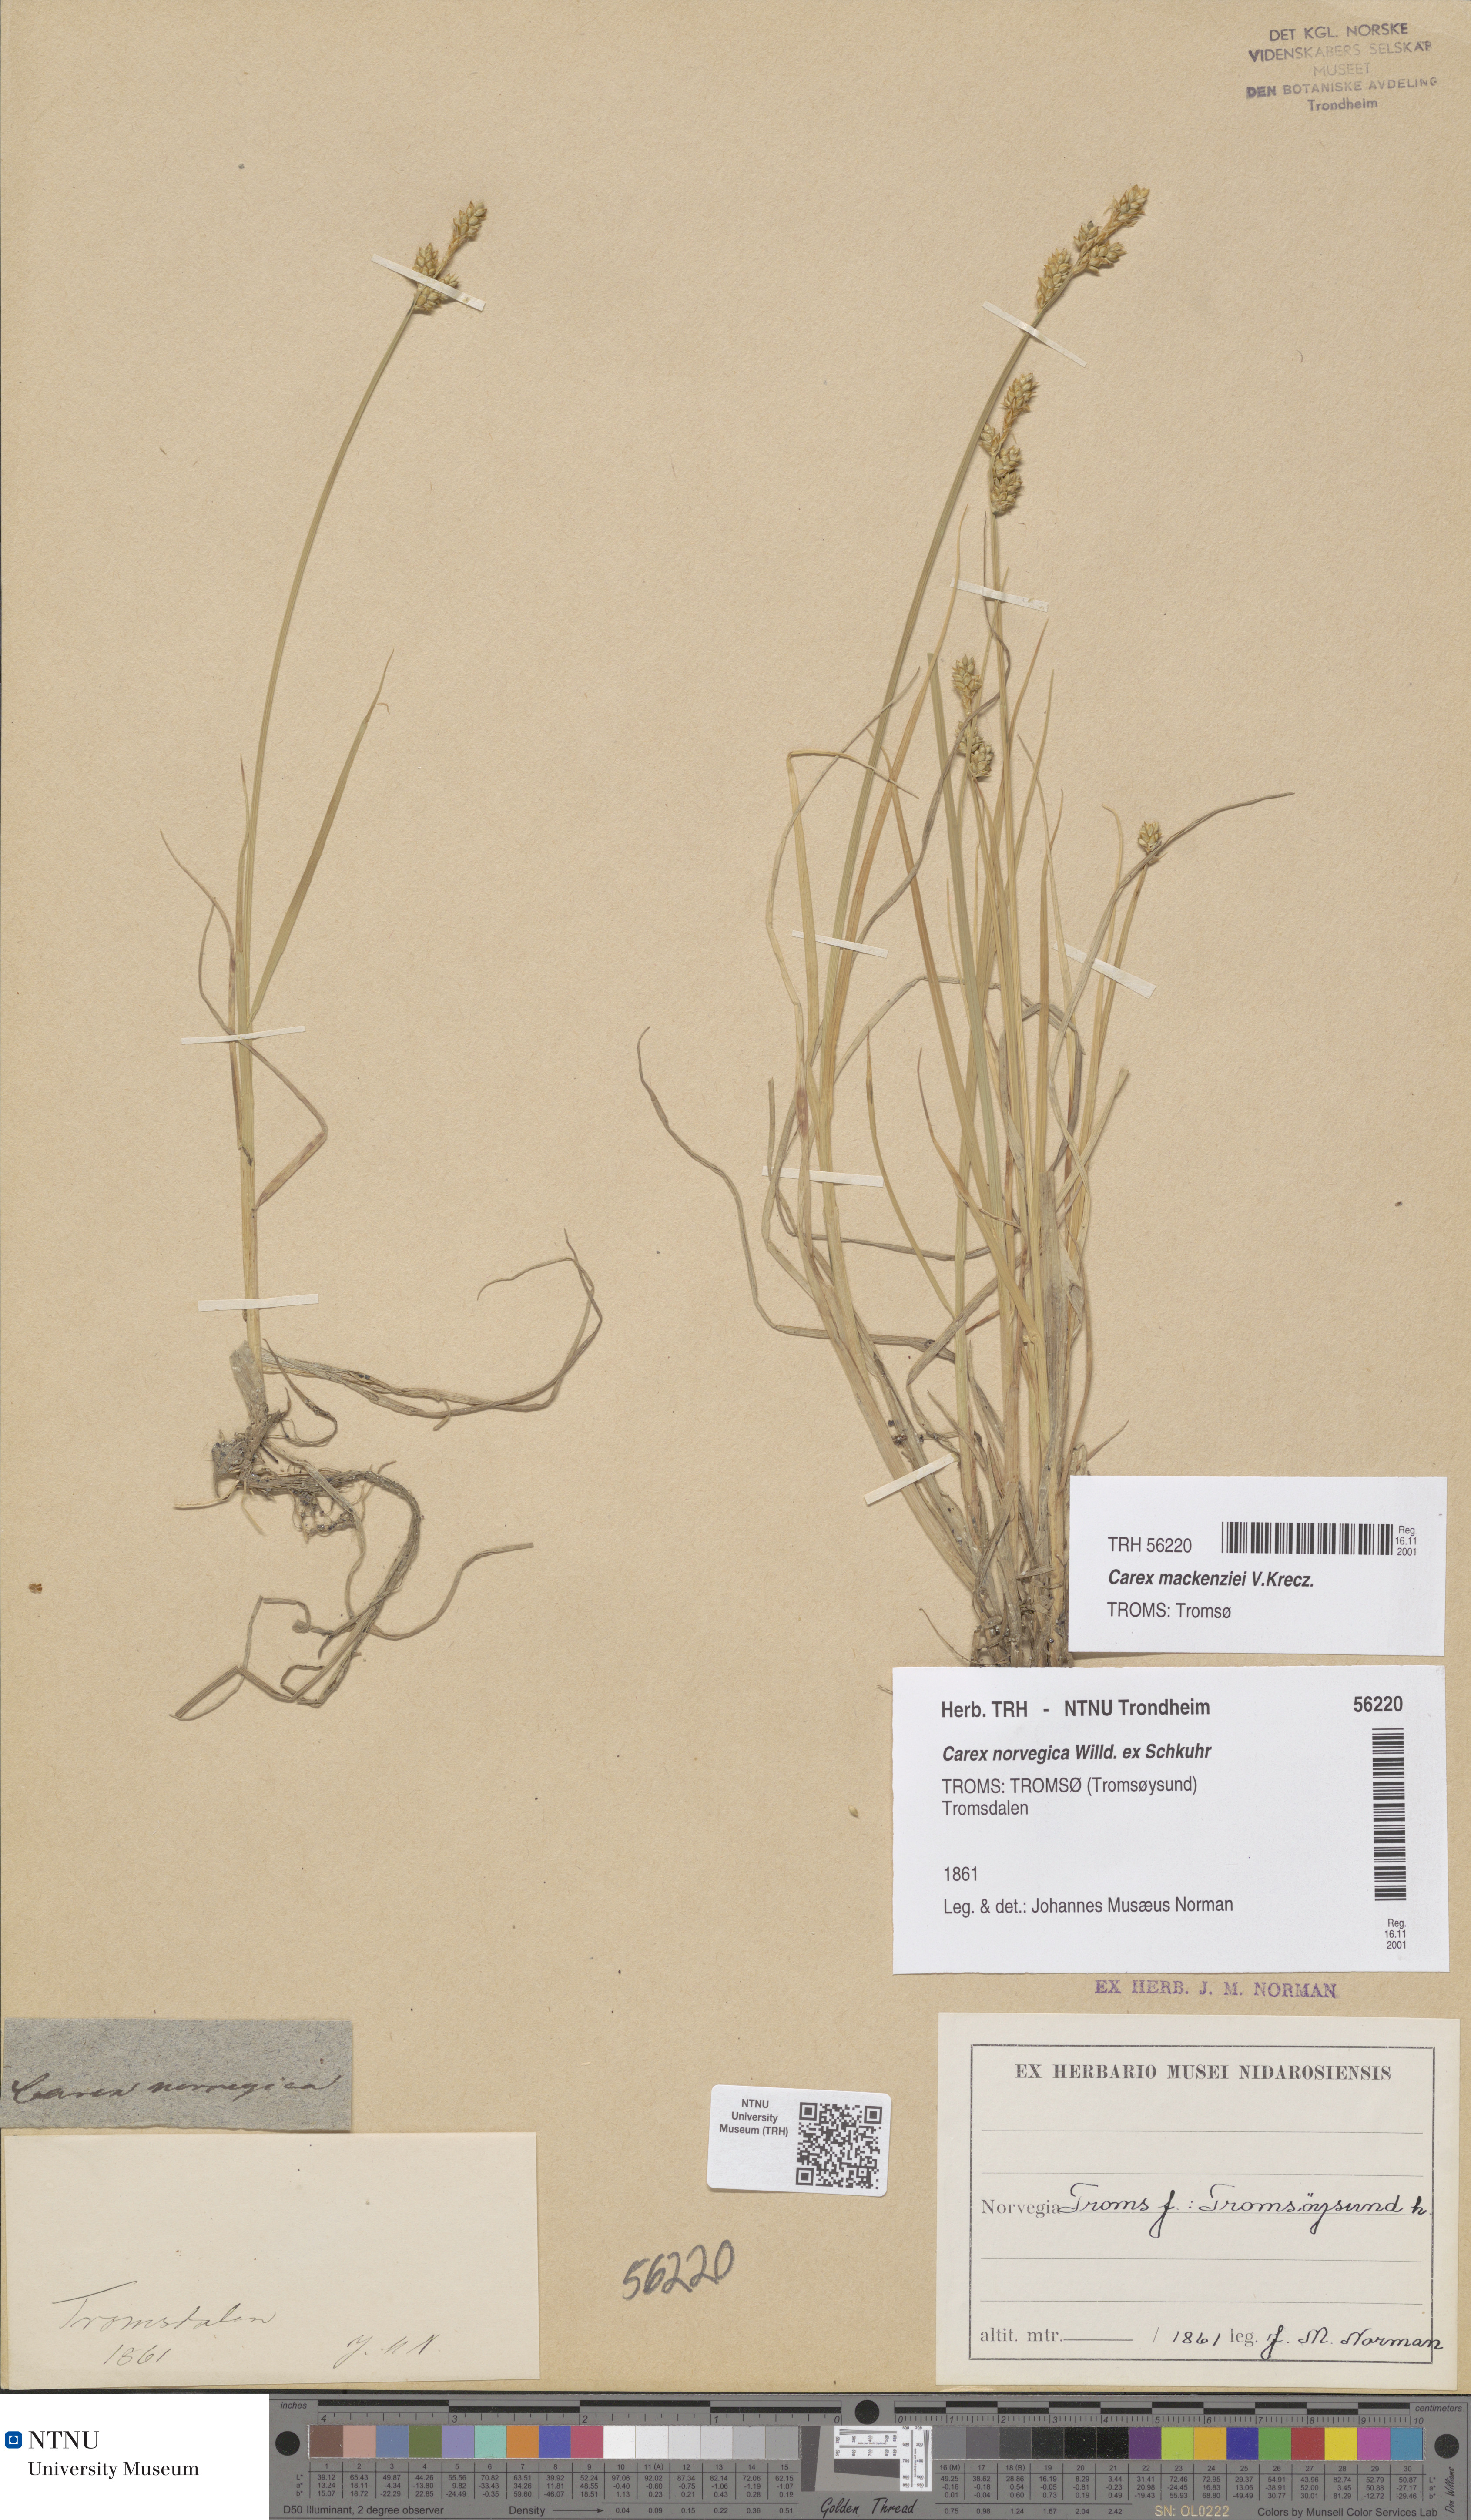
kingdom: Plantae
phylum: Tracheophyta
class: Liliopsida
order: Poales
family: Cyperaceae
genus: Carex
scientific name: Carex mackenziei
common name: Mackenzie's sedge
